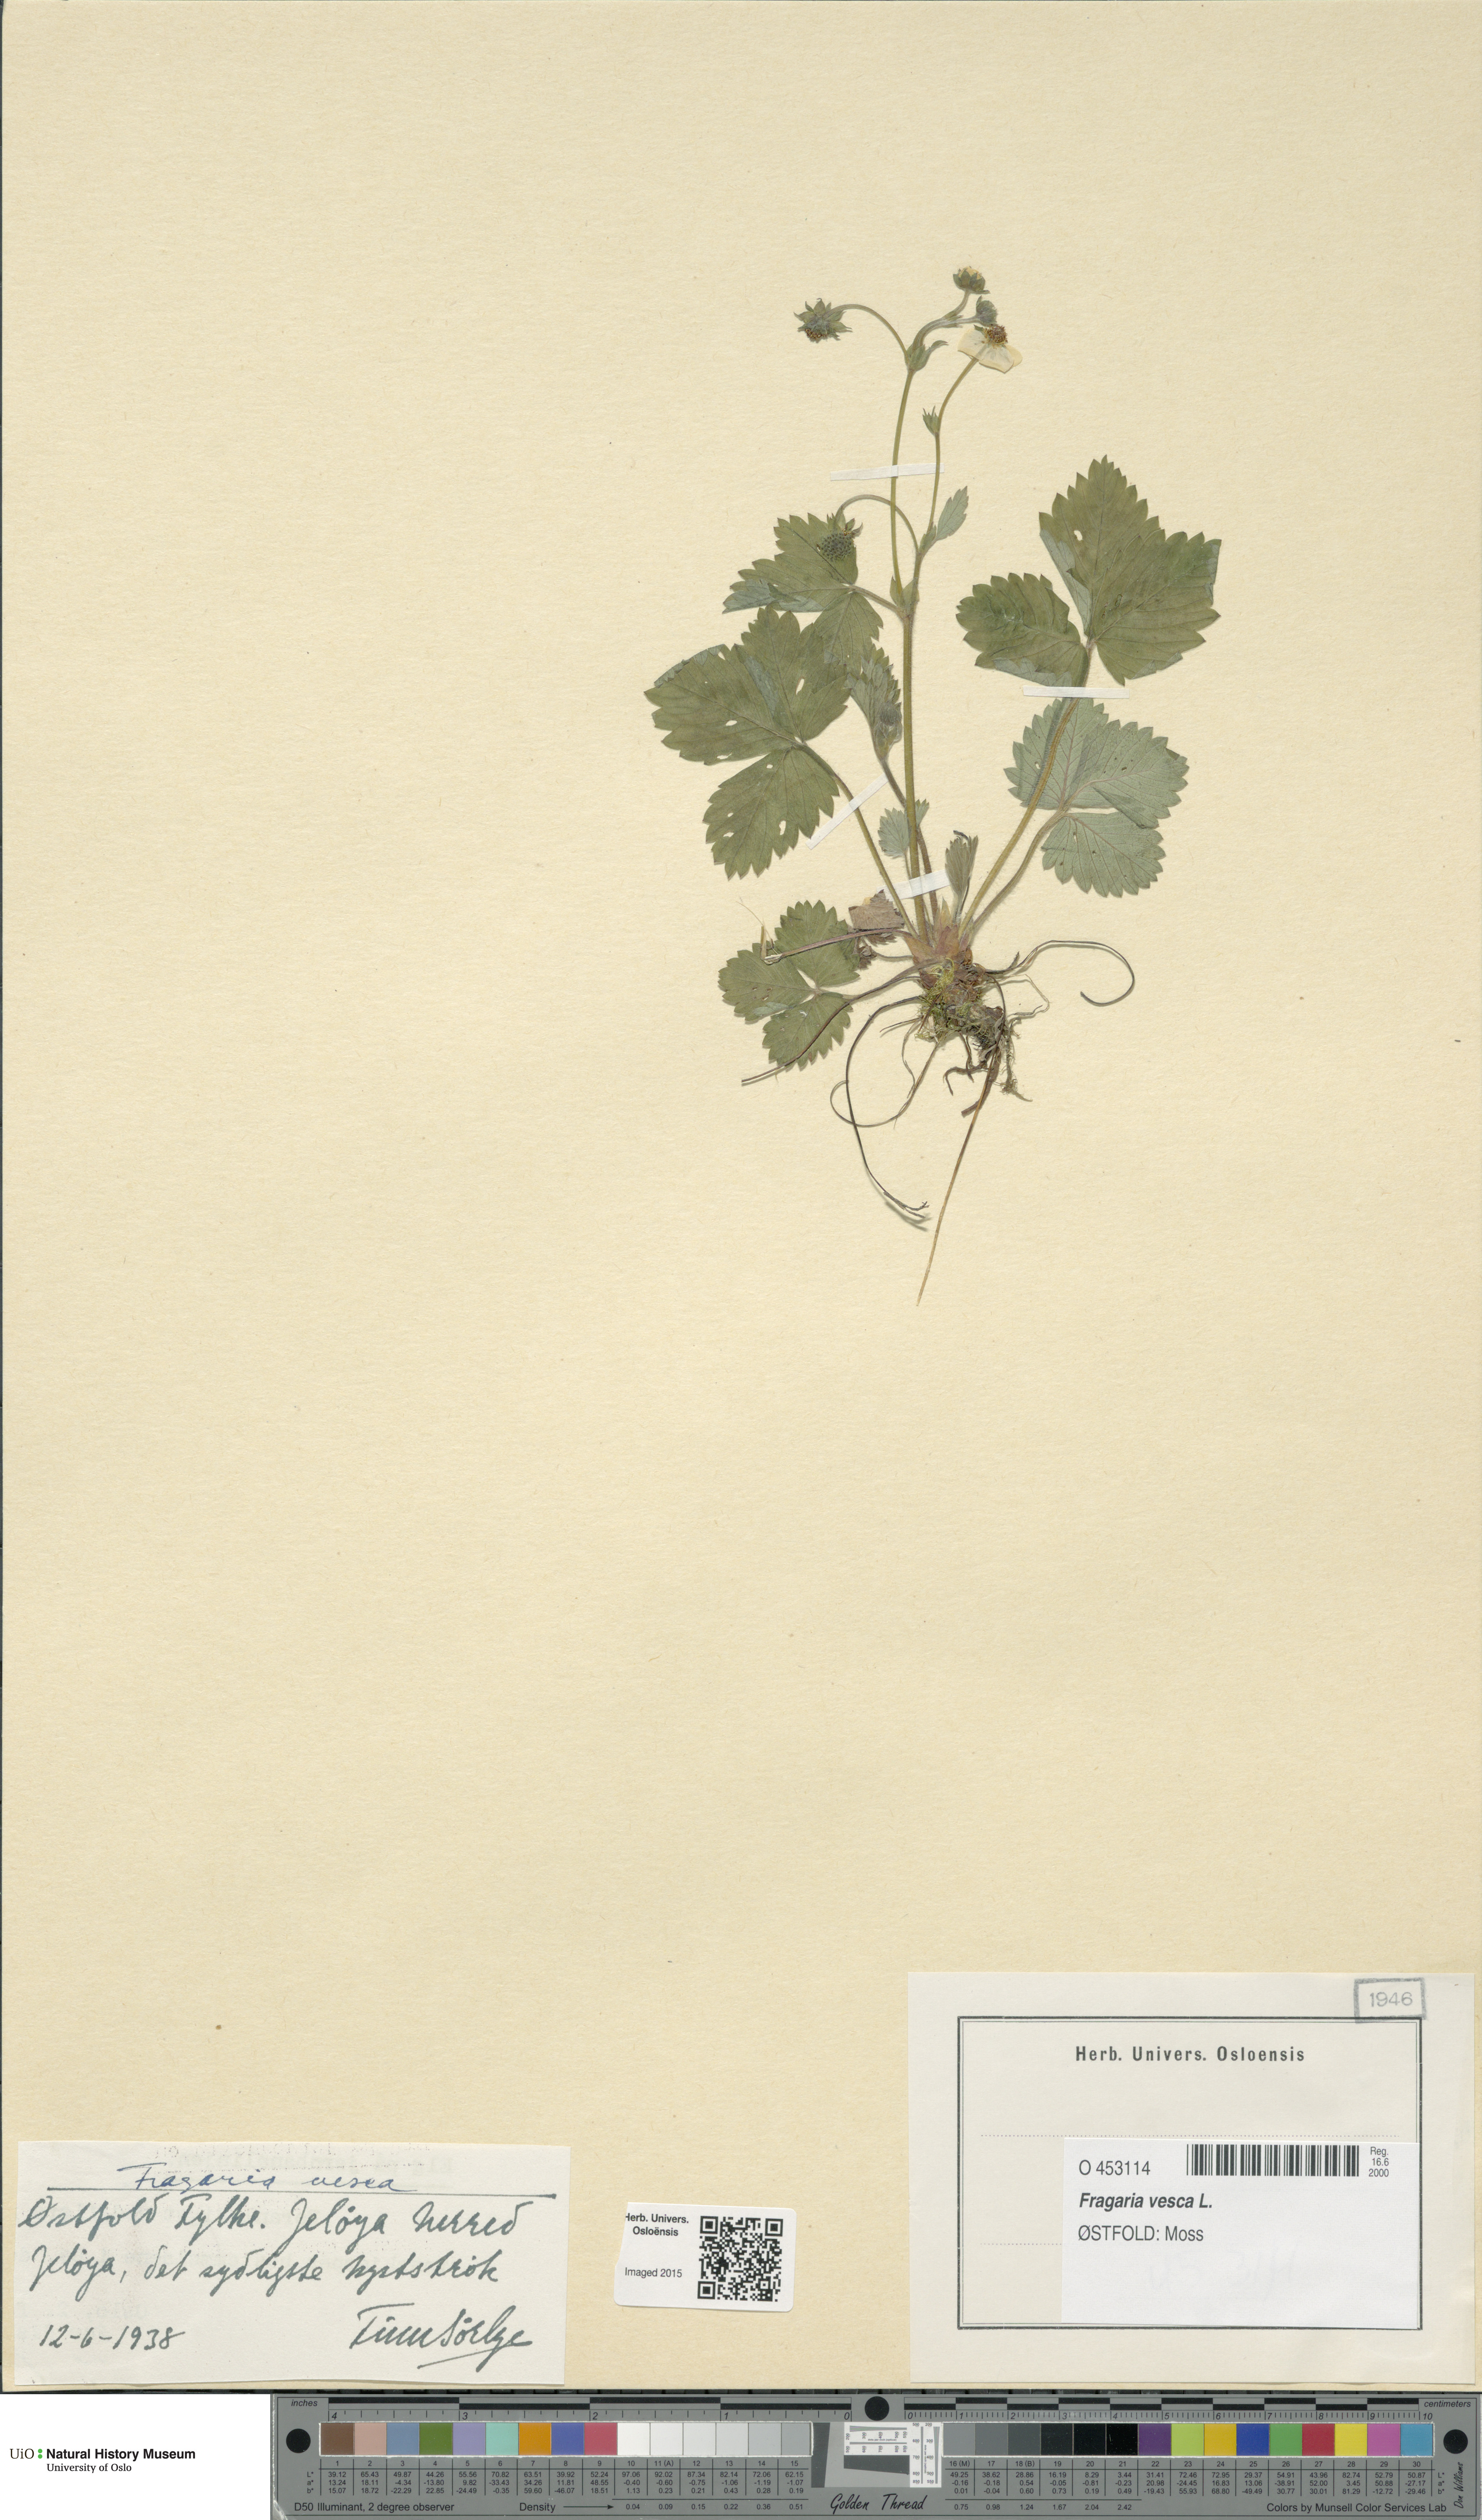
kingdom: Plantae
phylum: Tracheophyta
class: Magnoliopsida
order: Rosales
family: Rosaceae
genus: Fragaria
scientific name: Fragaria vesca
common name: Wild strawberry
